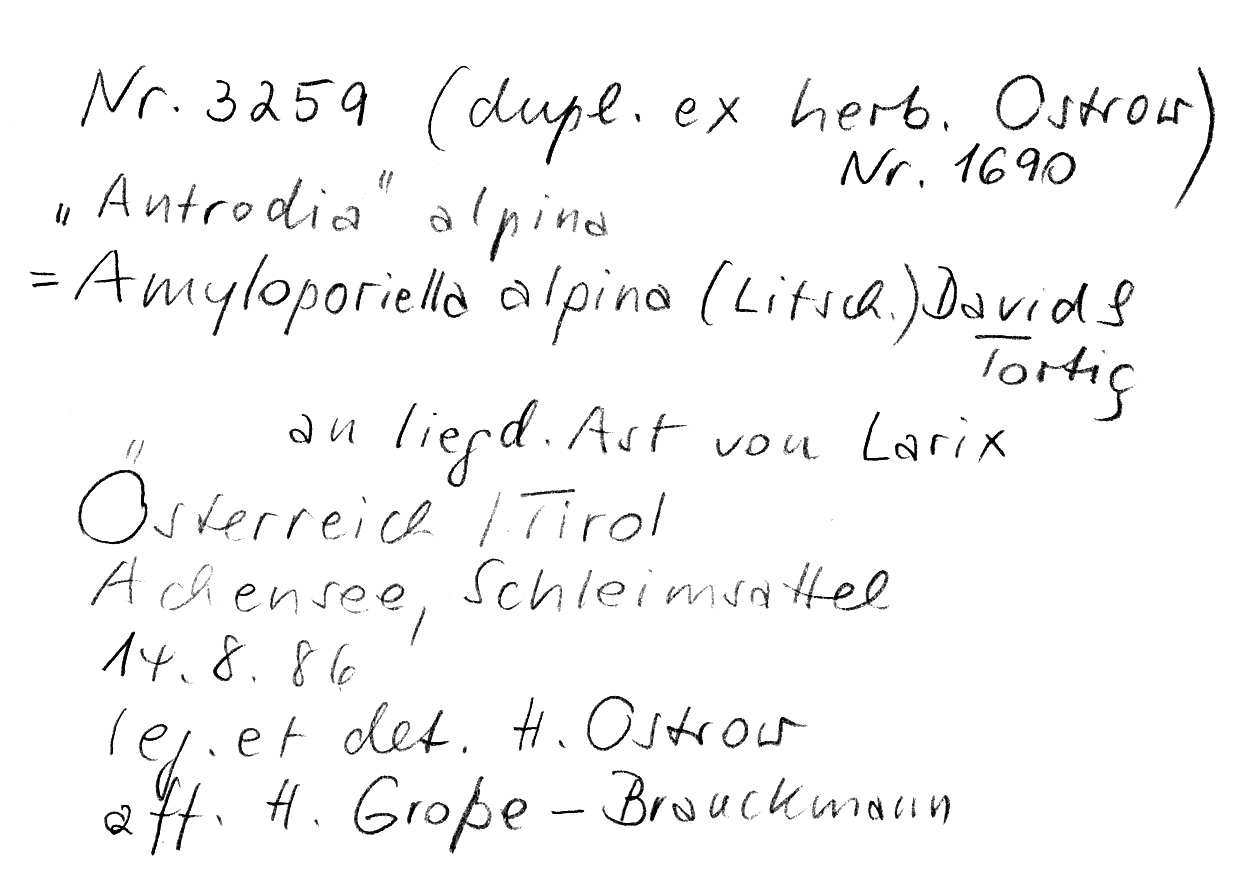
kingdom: Plantae
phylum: Tracheophyta
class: Pinopsida
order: Pinales
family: Pinaceae
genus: Larix
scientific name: Larix
